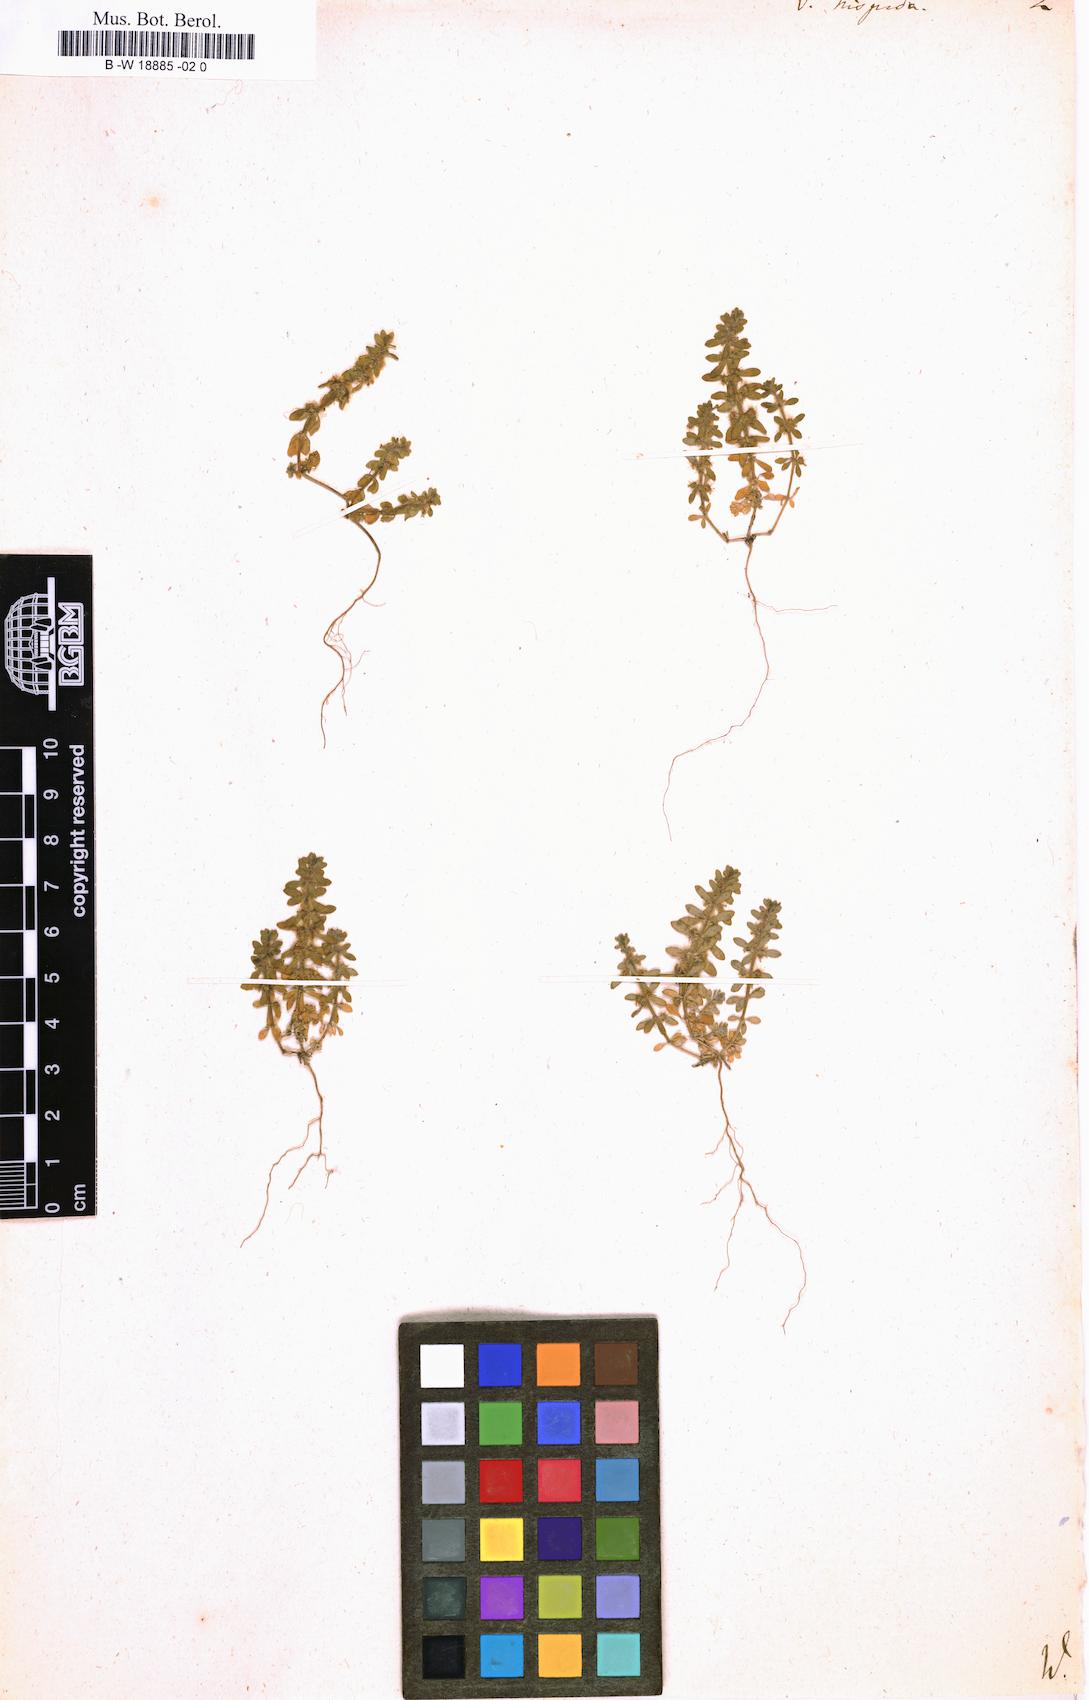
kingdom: Plantae
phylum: Tracheophyta
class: Magnoliopsida
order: Gentianales
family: Rubiaceae
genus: Valantia
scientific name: Valantia hispida
